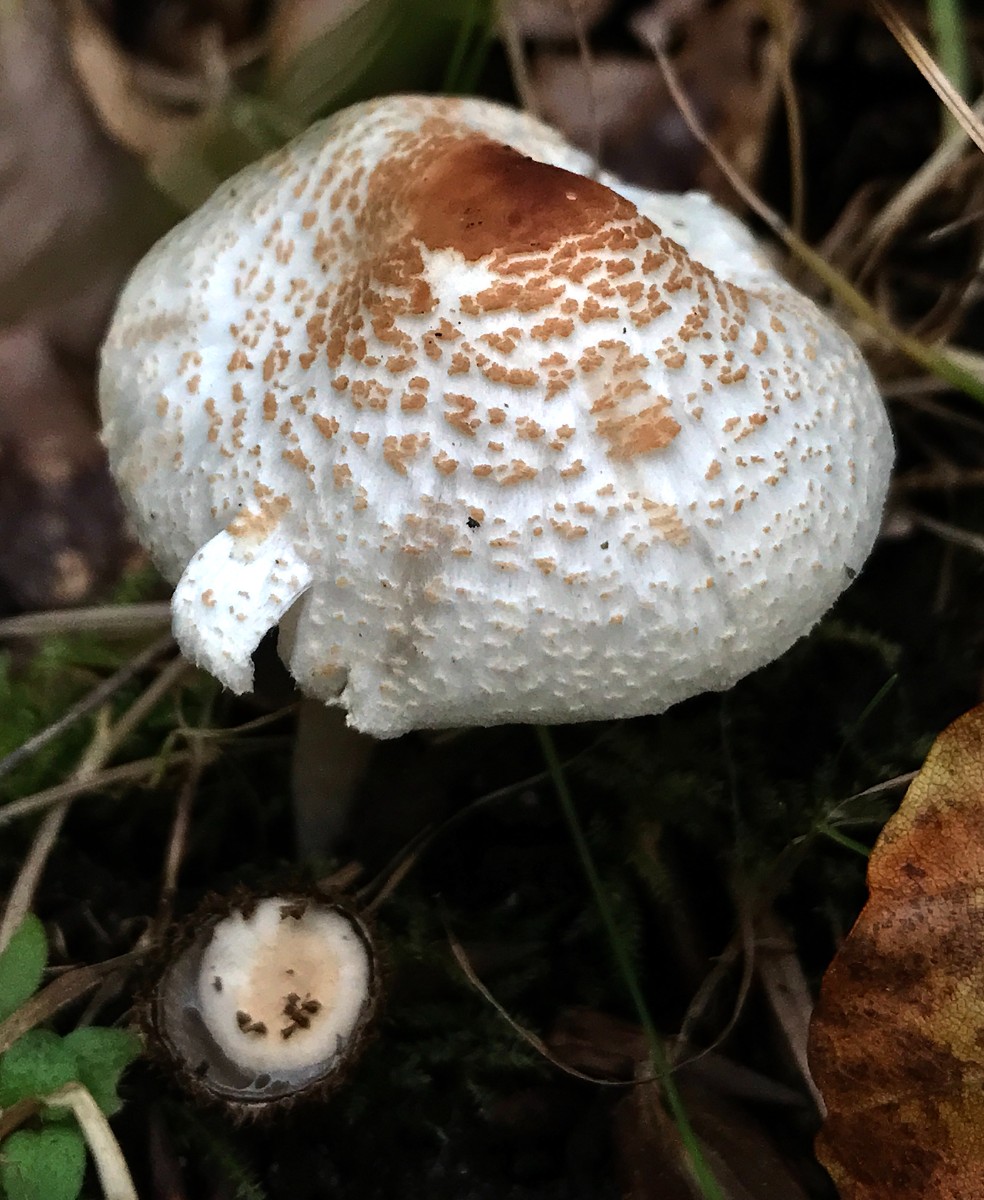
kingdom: Fungi
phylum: Basidiomycota
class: Agaricomycetes
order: Agaricales
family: Agaricaceae
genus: Lepiota
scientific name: Lepiota cristata
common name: stinkende parasolhat
